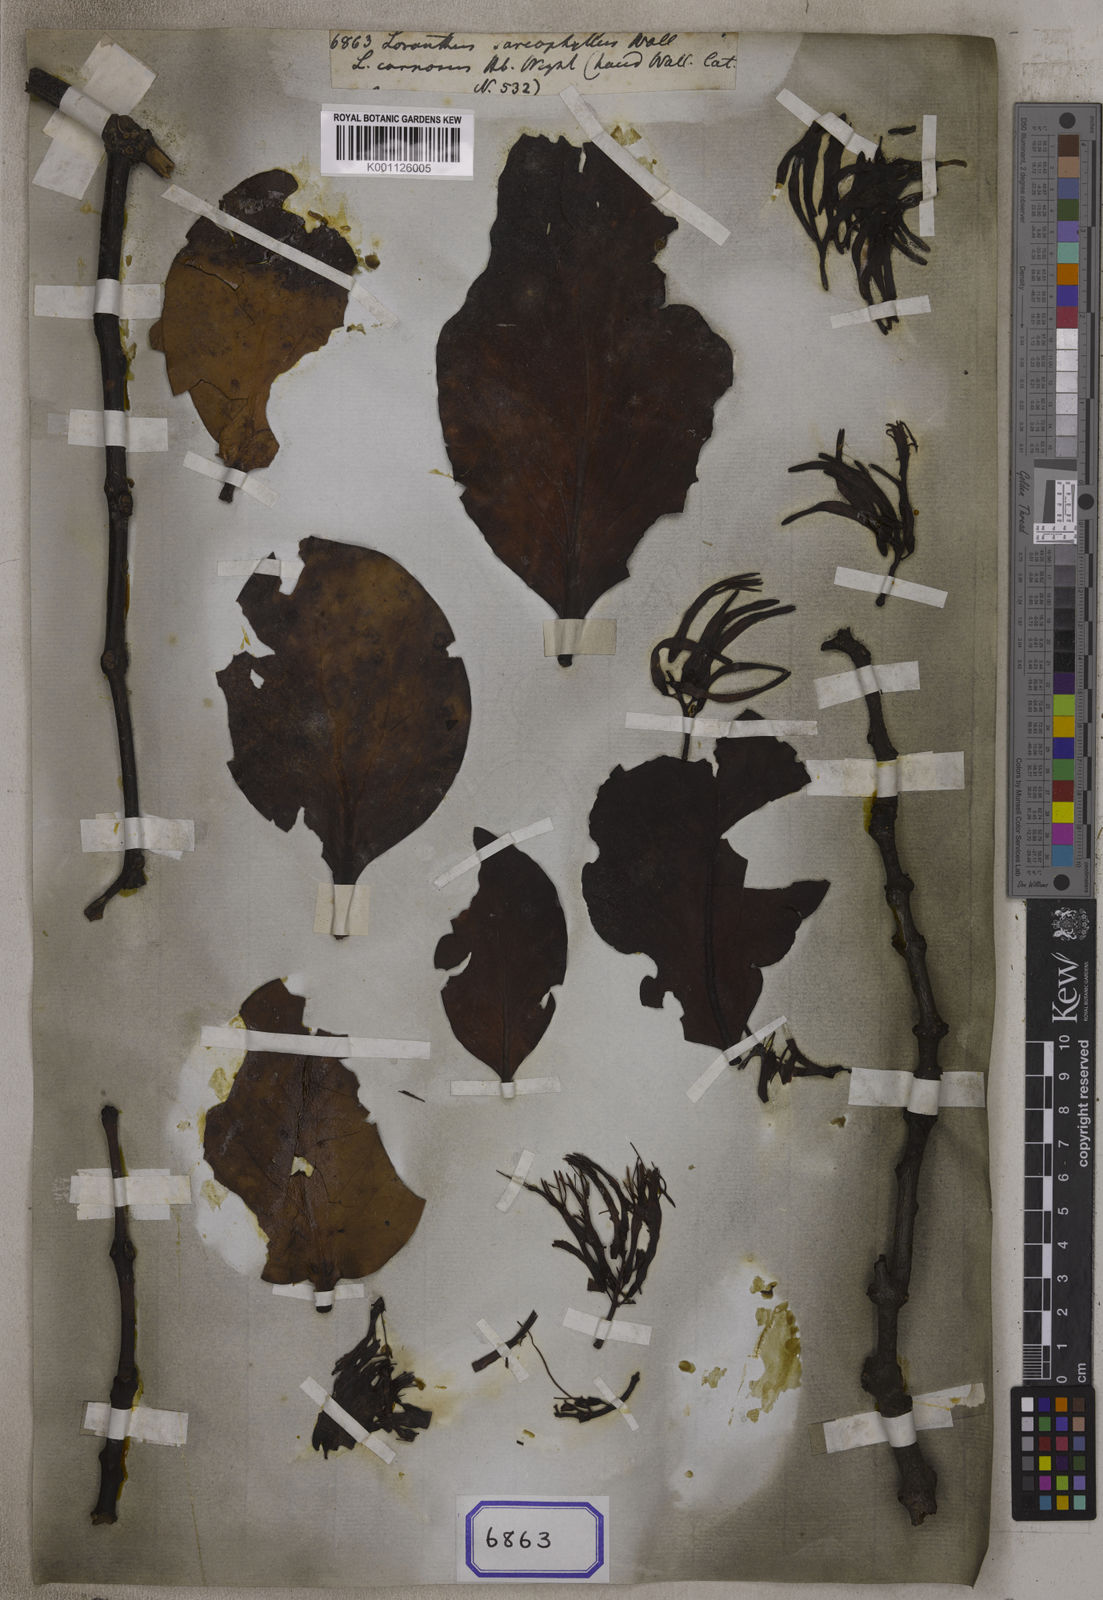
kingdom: Plantae
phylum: Tracheophyta
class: Magnoliopsida
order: Santalales
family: Loranthaceae
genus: Dendrophthoe
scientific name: Dendrophthoe falcata
